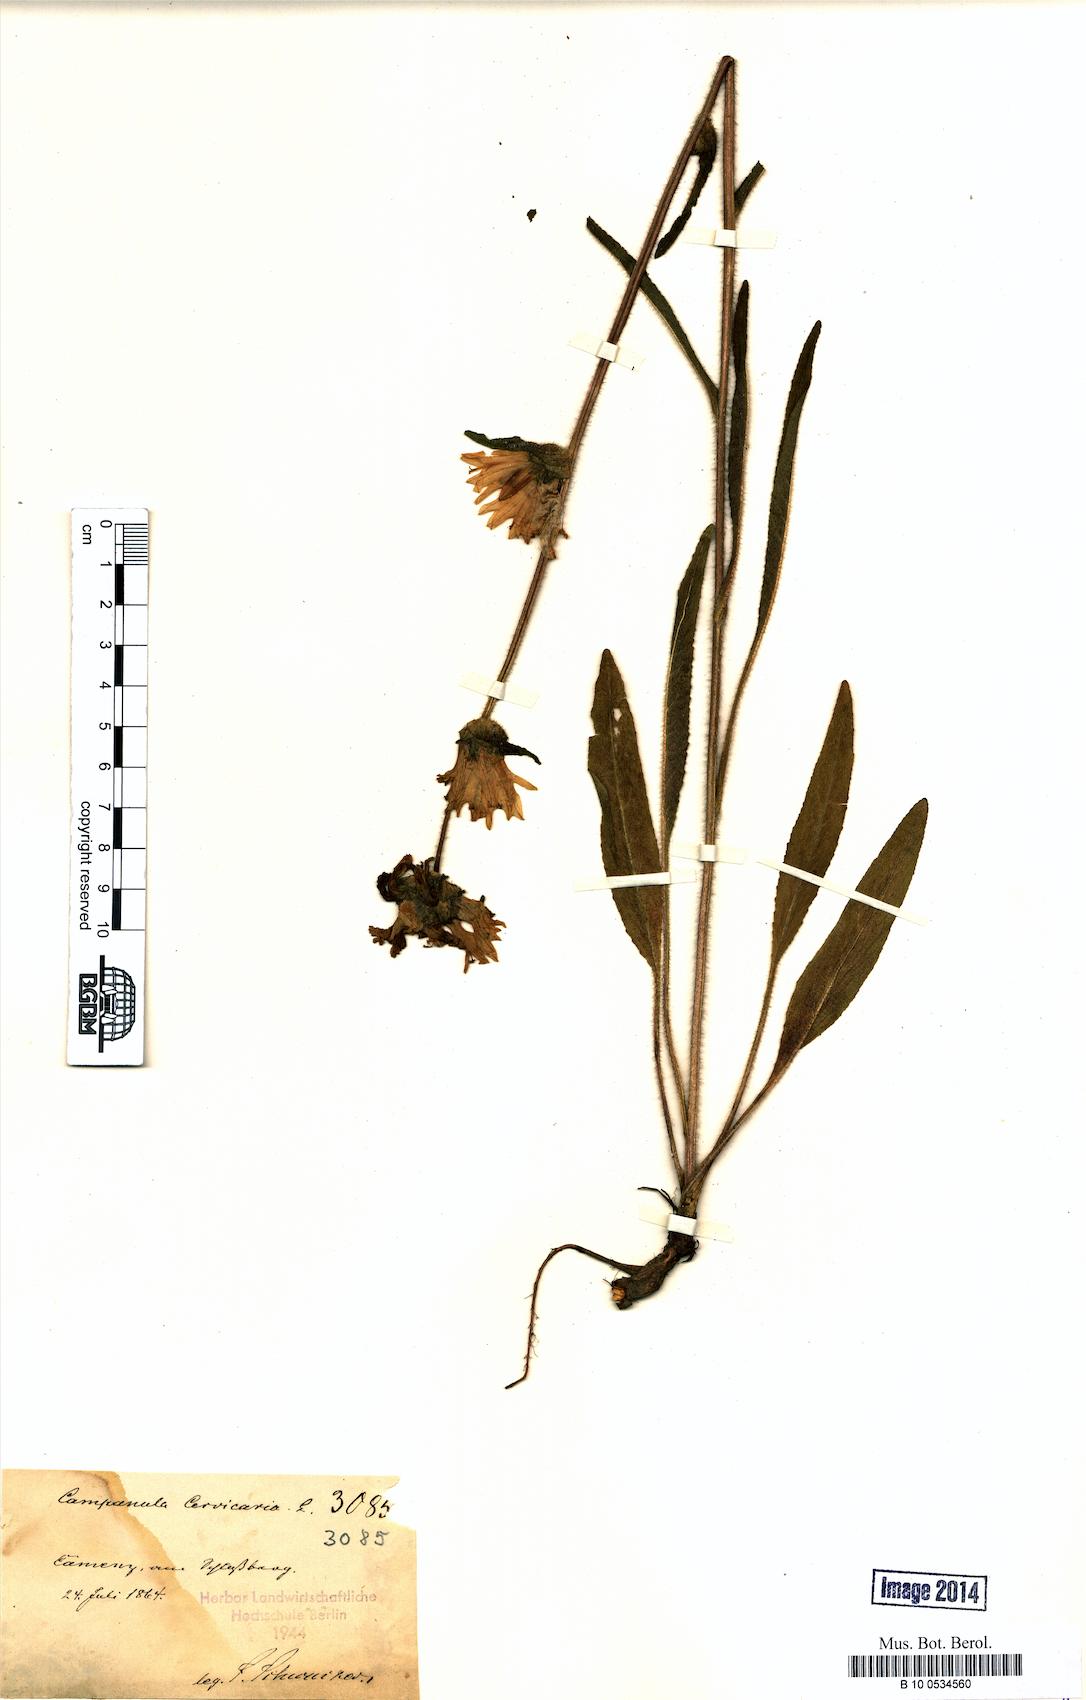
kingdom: Plantae
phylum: Tracheophyta
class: Magnoliopsida
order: Asterales
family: Campanulaceae
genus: Campanula
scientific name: Campanula cervicaria
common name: Bristly bellflower
